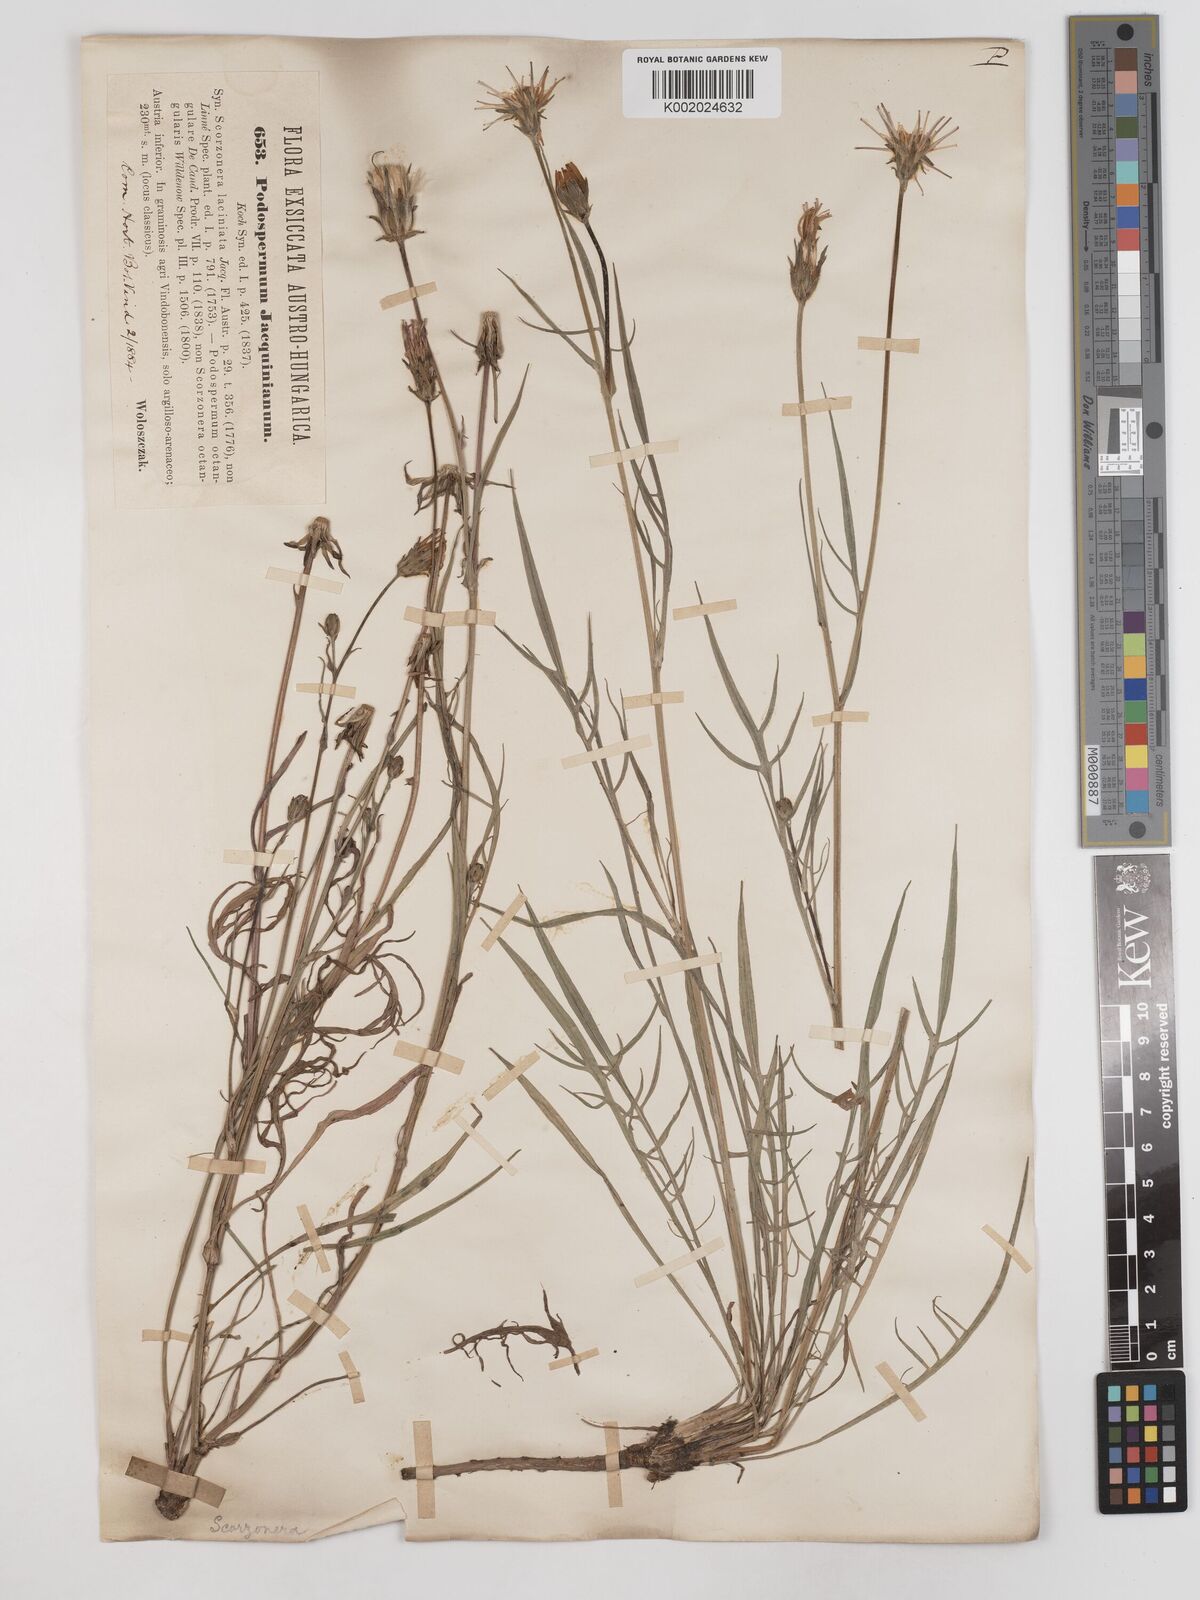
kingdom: Plantae
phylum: Tracheophyta
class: Magnoliopsida
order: Asterales
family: Asteraceae
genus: Scorzonera
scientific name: Scorzonera cana
